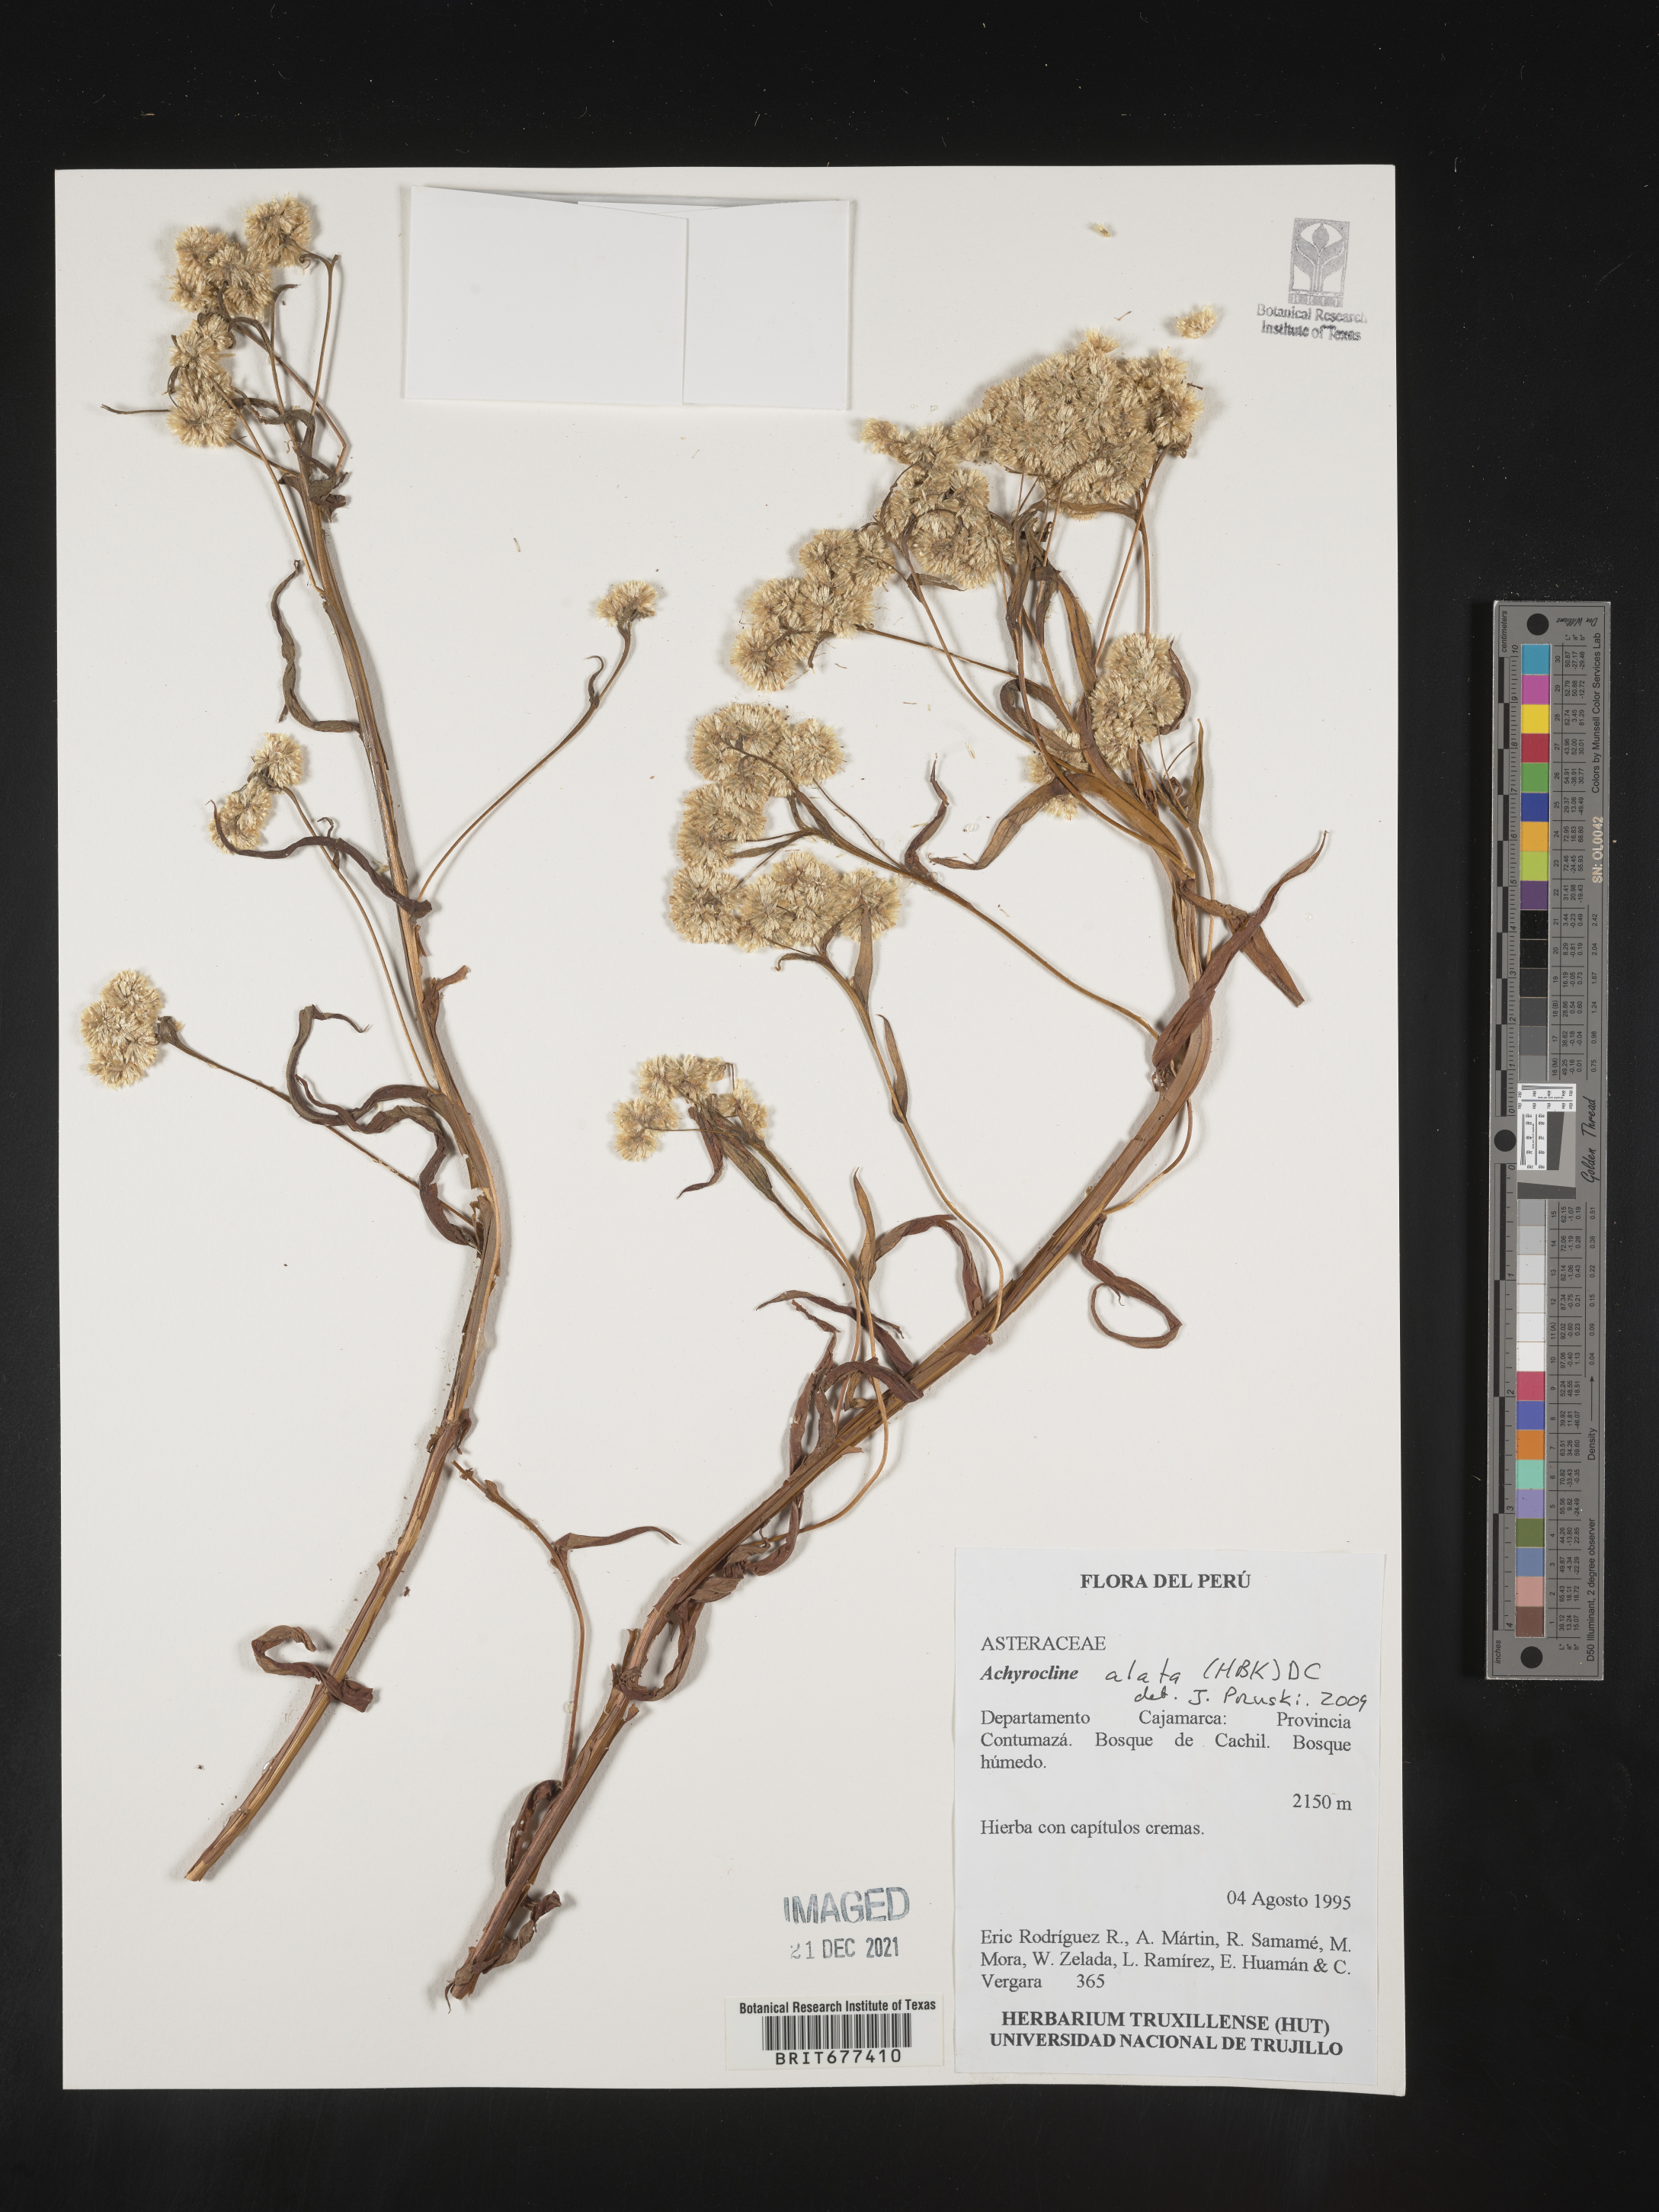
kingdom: Plantae
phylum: Tracheophyta
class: Magnoliopsida
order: Asterales
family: Asteraceae
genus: Achyrocline
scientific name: Achyrocline
